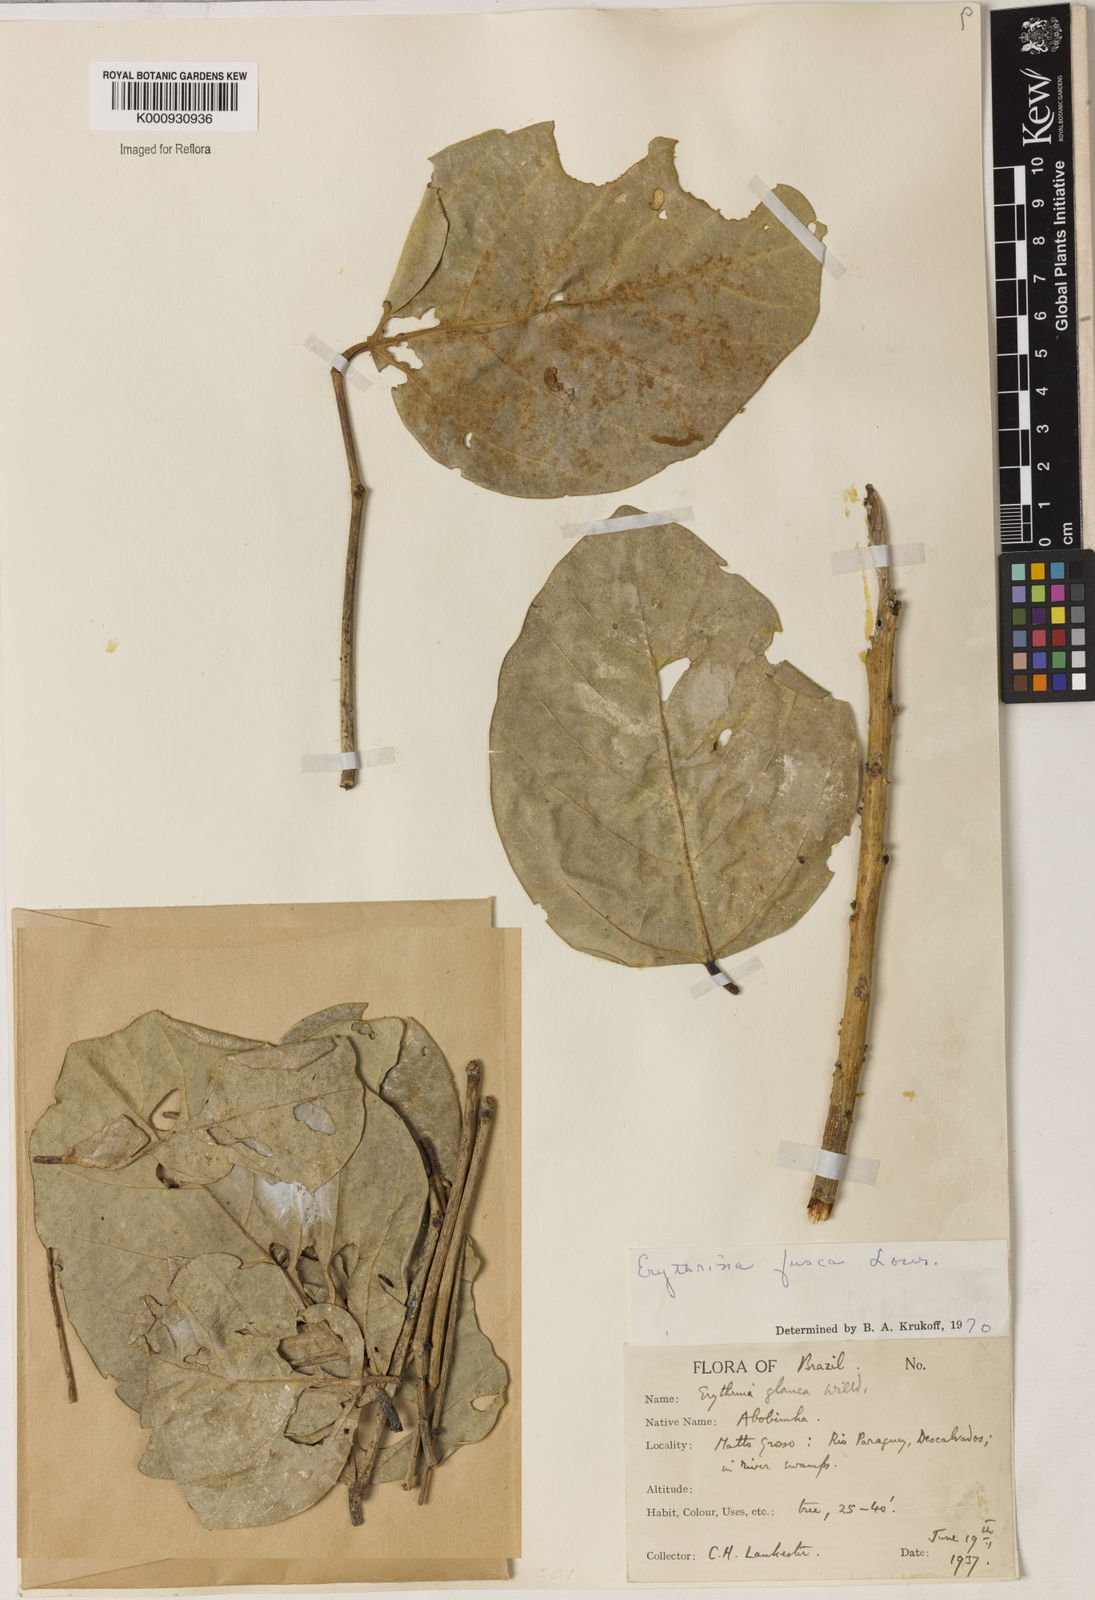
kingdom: Plantae
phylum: Tracheophyta
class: Magnoliopsida
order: Fabales
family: Fabaceae
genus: Erythrina
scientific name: Erythrina fusca
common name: Coral-bean
